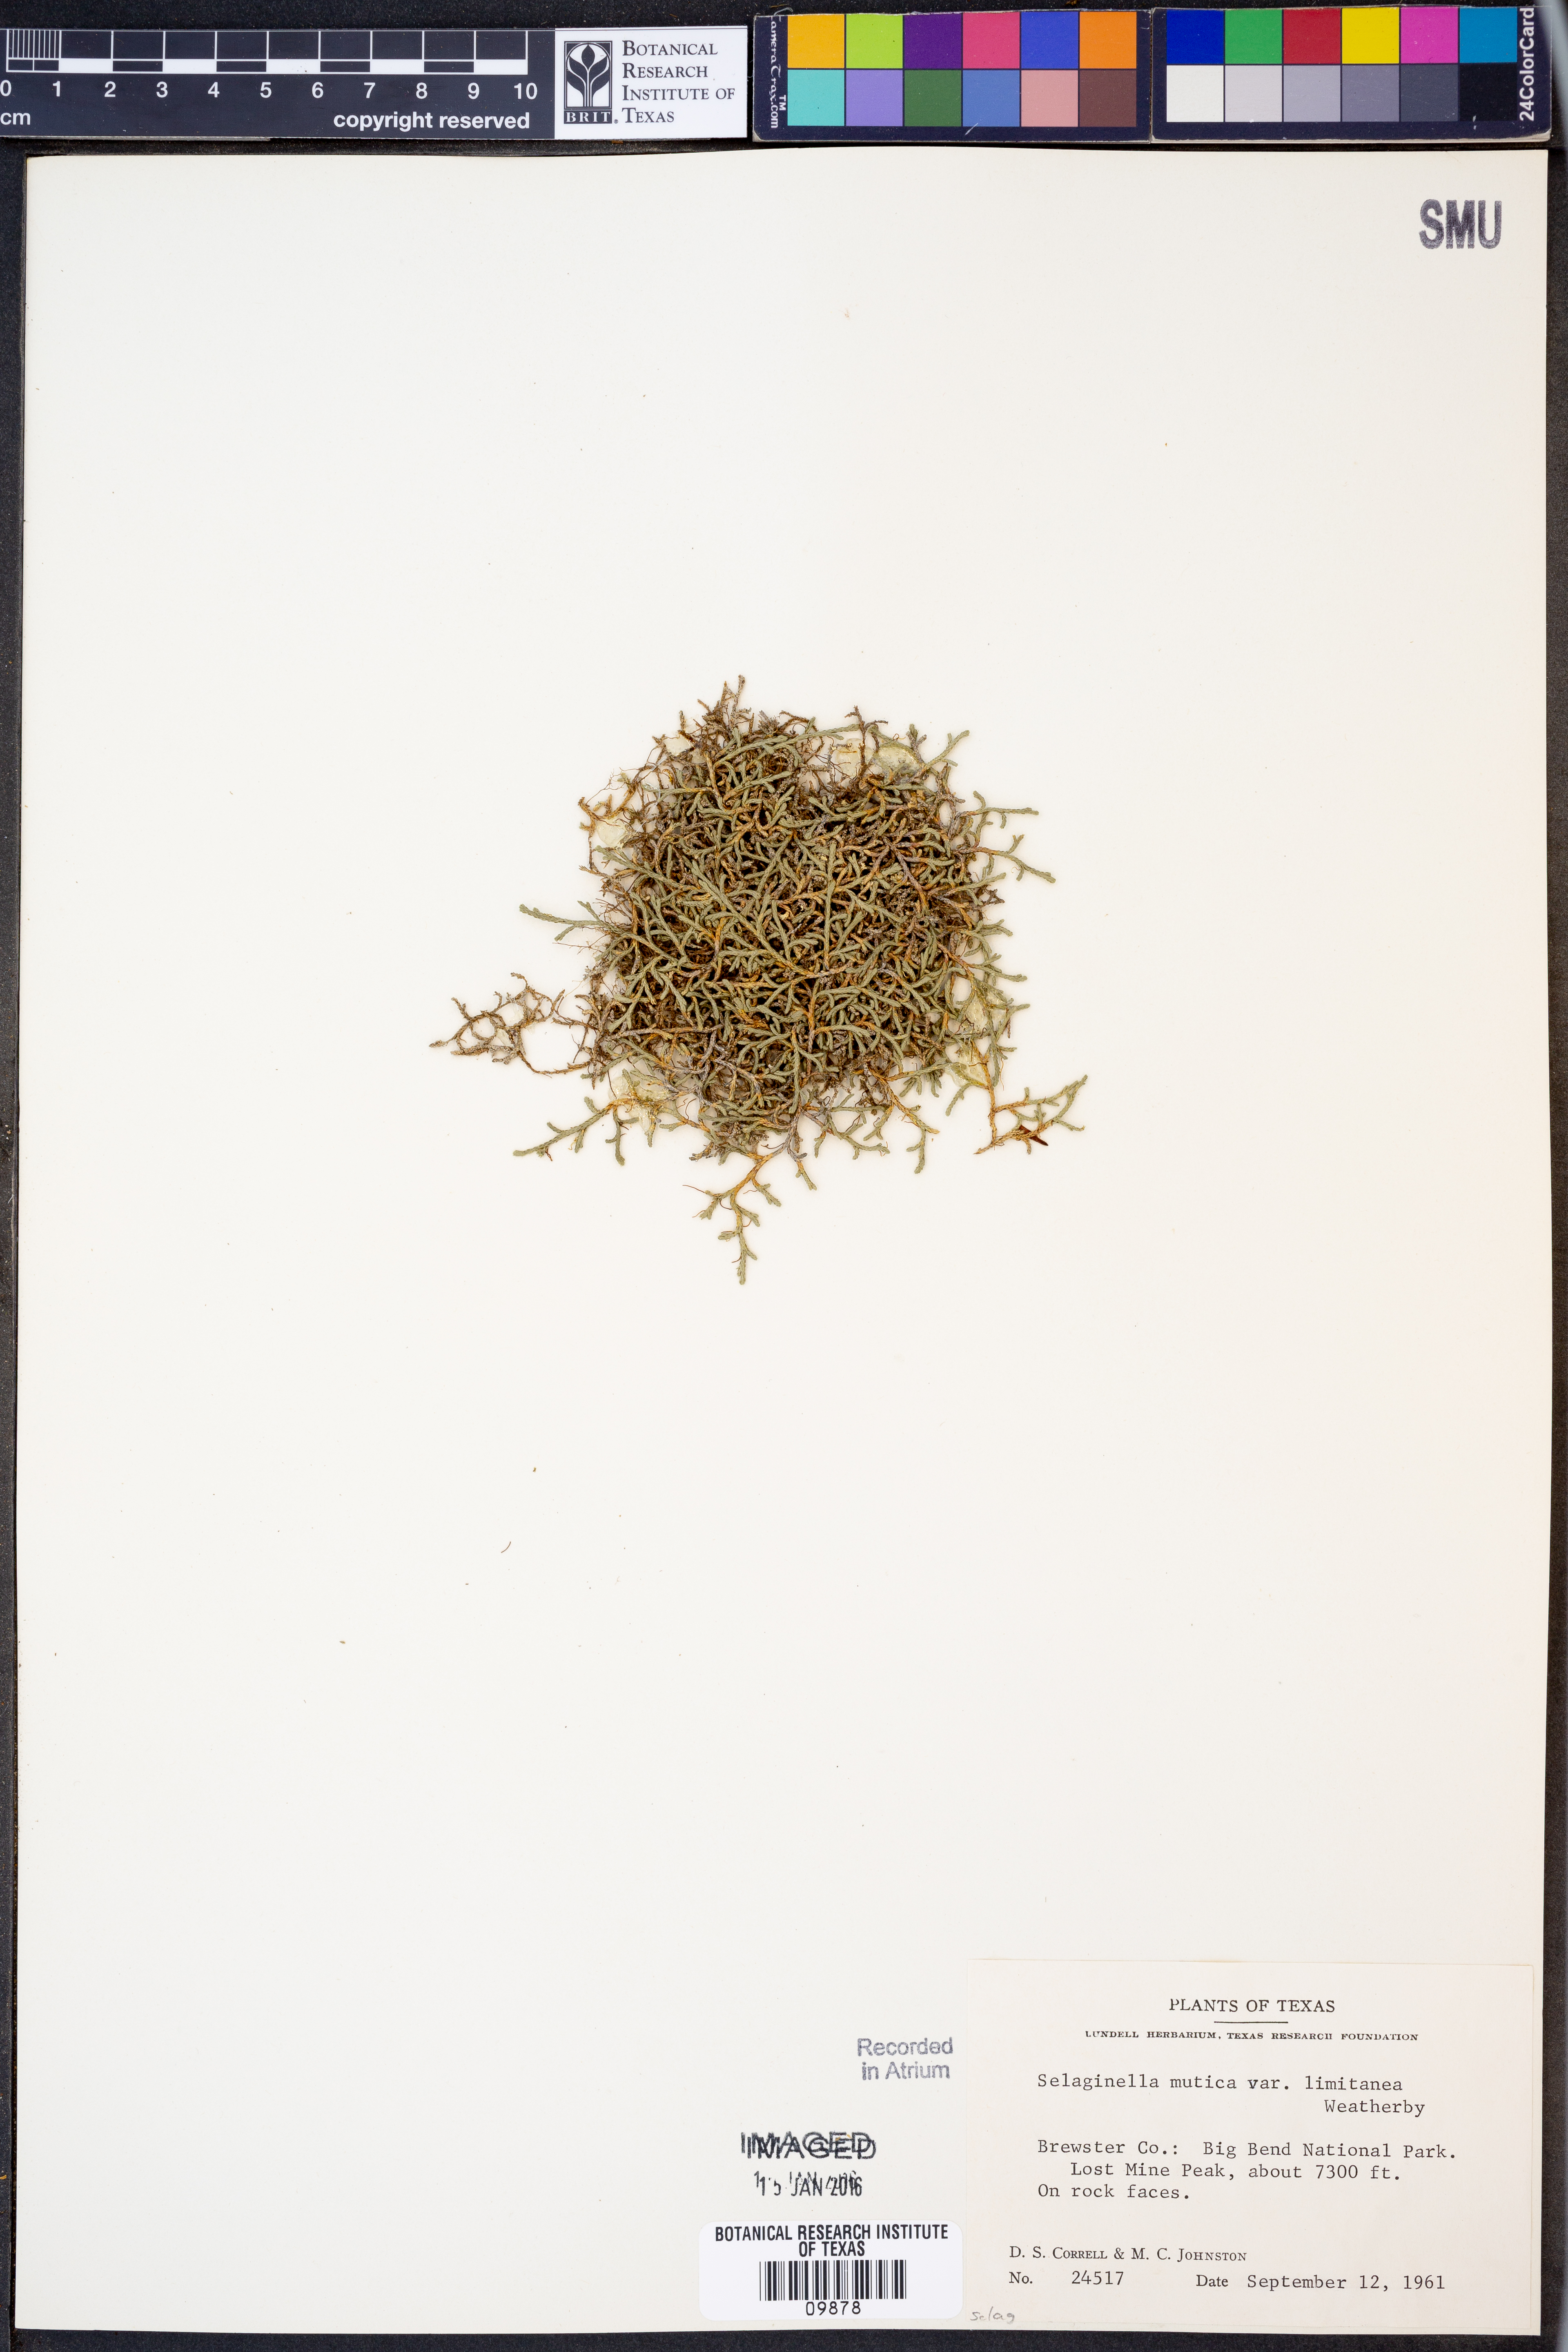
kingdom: Plantae
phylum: Tracheophyta
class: Lycopodiopsida
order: Selaginellales
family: Selaginellaceae
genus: Selaginella
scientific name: Selaginella mutica
